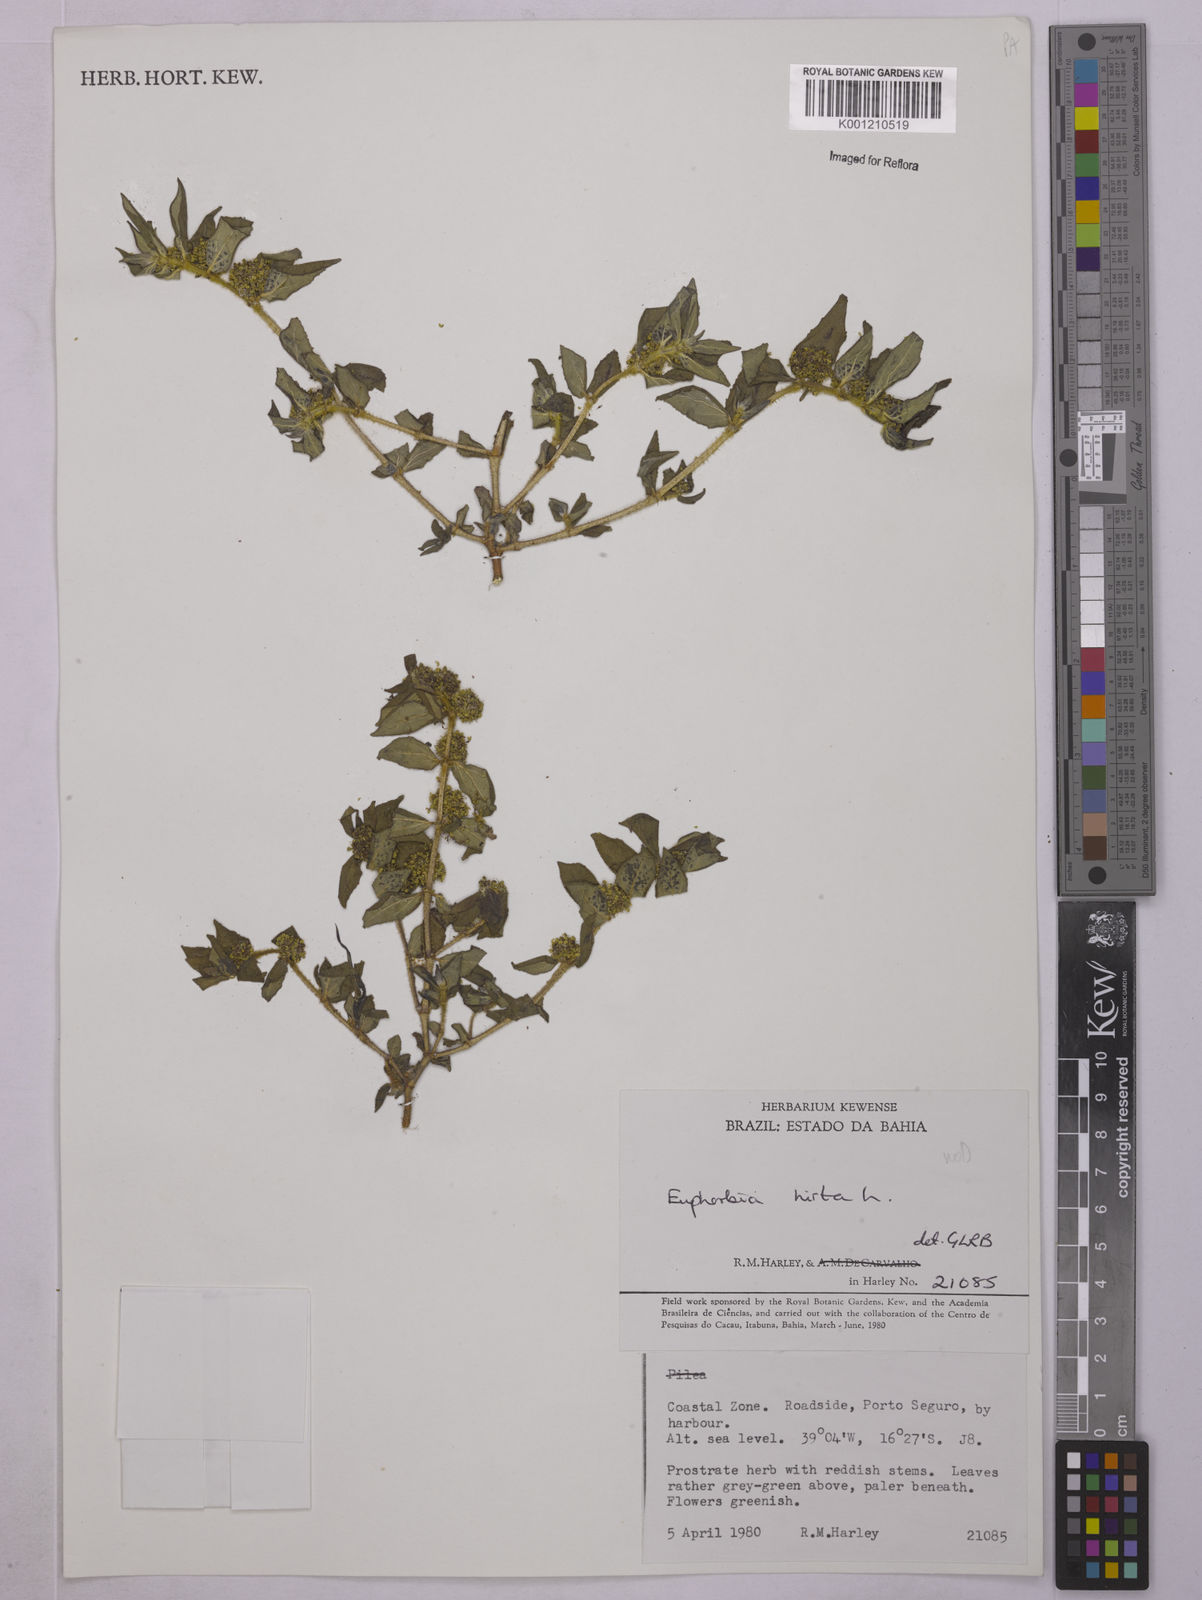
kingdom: Plantae
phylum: Tracheophyta
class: Magnoliopsida
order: Malpighiales
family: Euphorbiaceae
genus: Euphorbia
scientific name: Euphorbia hirta
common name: Pillpod sandmat
